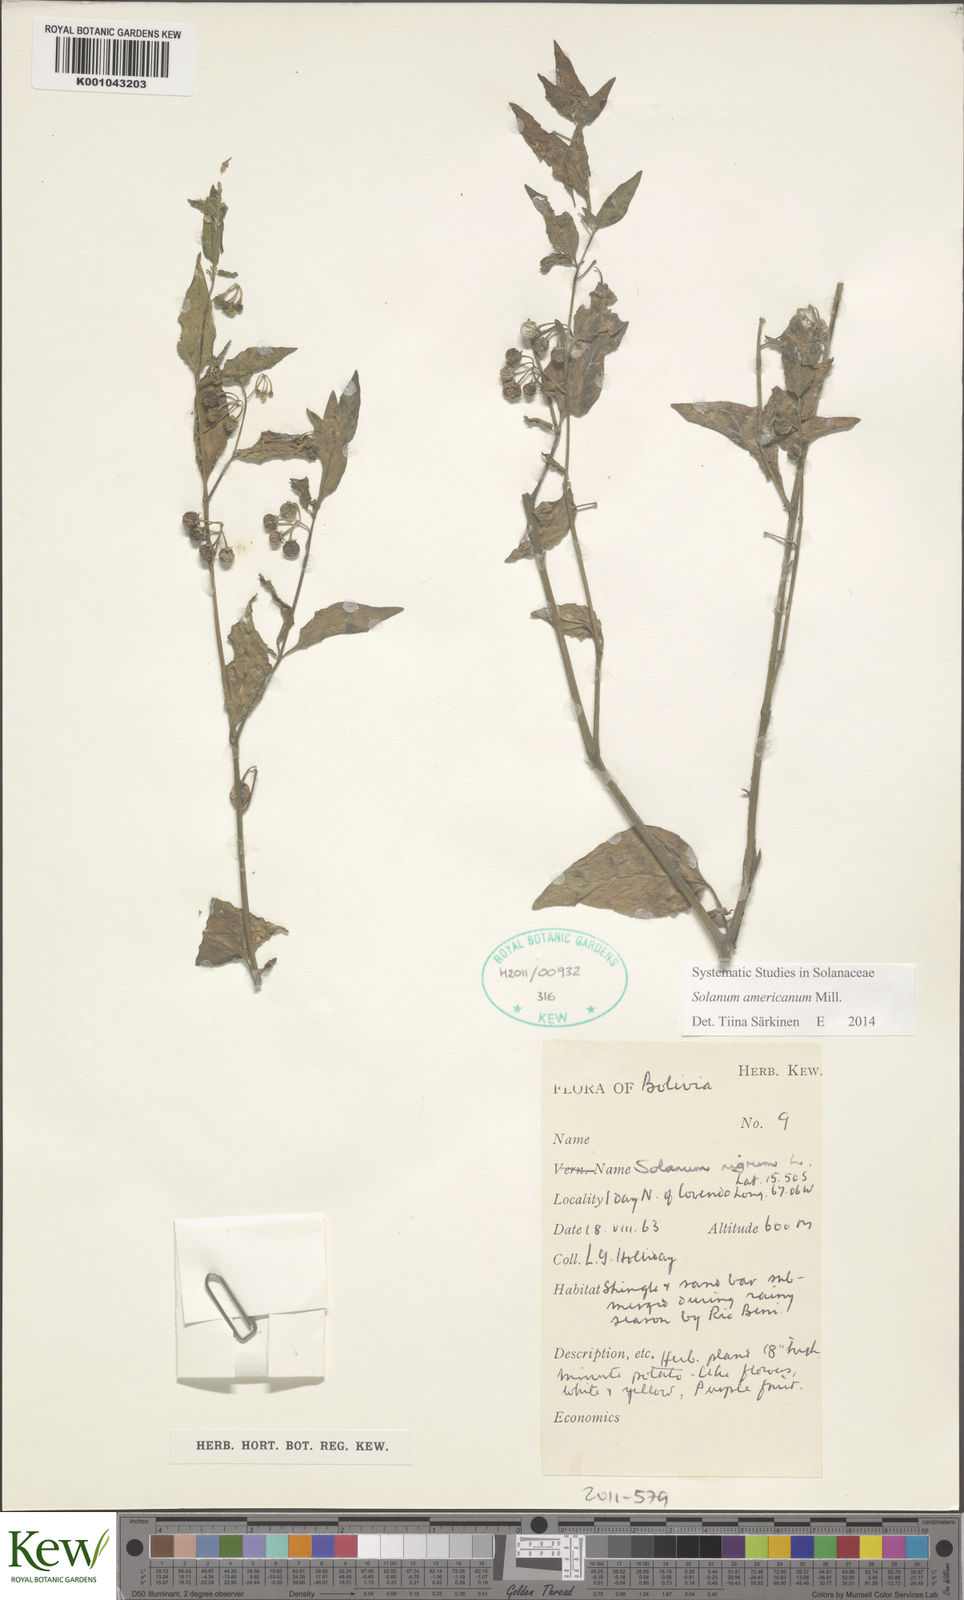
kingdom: Plantae
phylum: Tracheophyta
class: Magnoliopsida
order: Solanales
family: Solanaceae
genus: Solanum
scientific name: Solanum americanum
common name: American black nightshade
